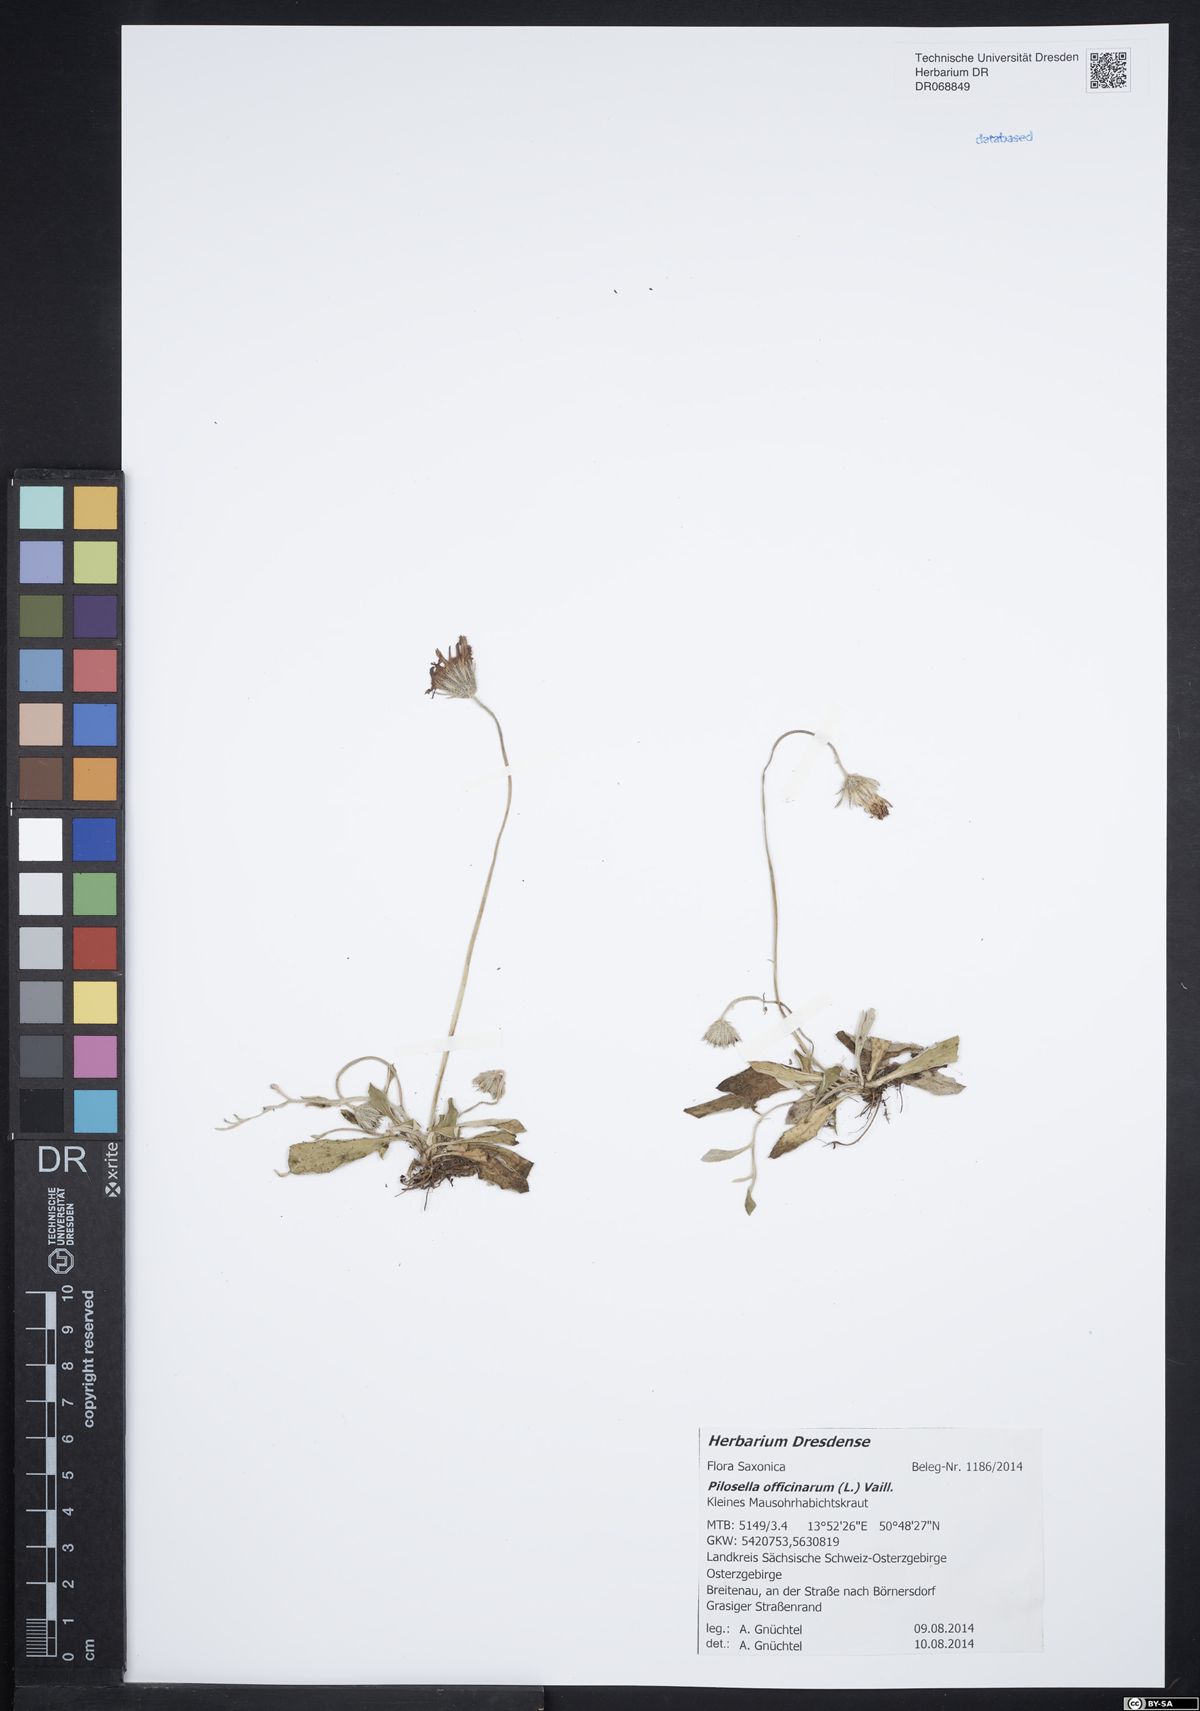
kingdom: Plantae
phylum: Tracheophyta
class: Magnoliopsida
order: Asterales
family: Asteraceae
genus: Pilosella
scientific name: Pilosella officinarum
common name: Mouse-ear hawkweed
